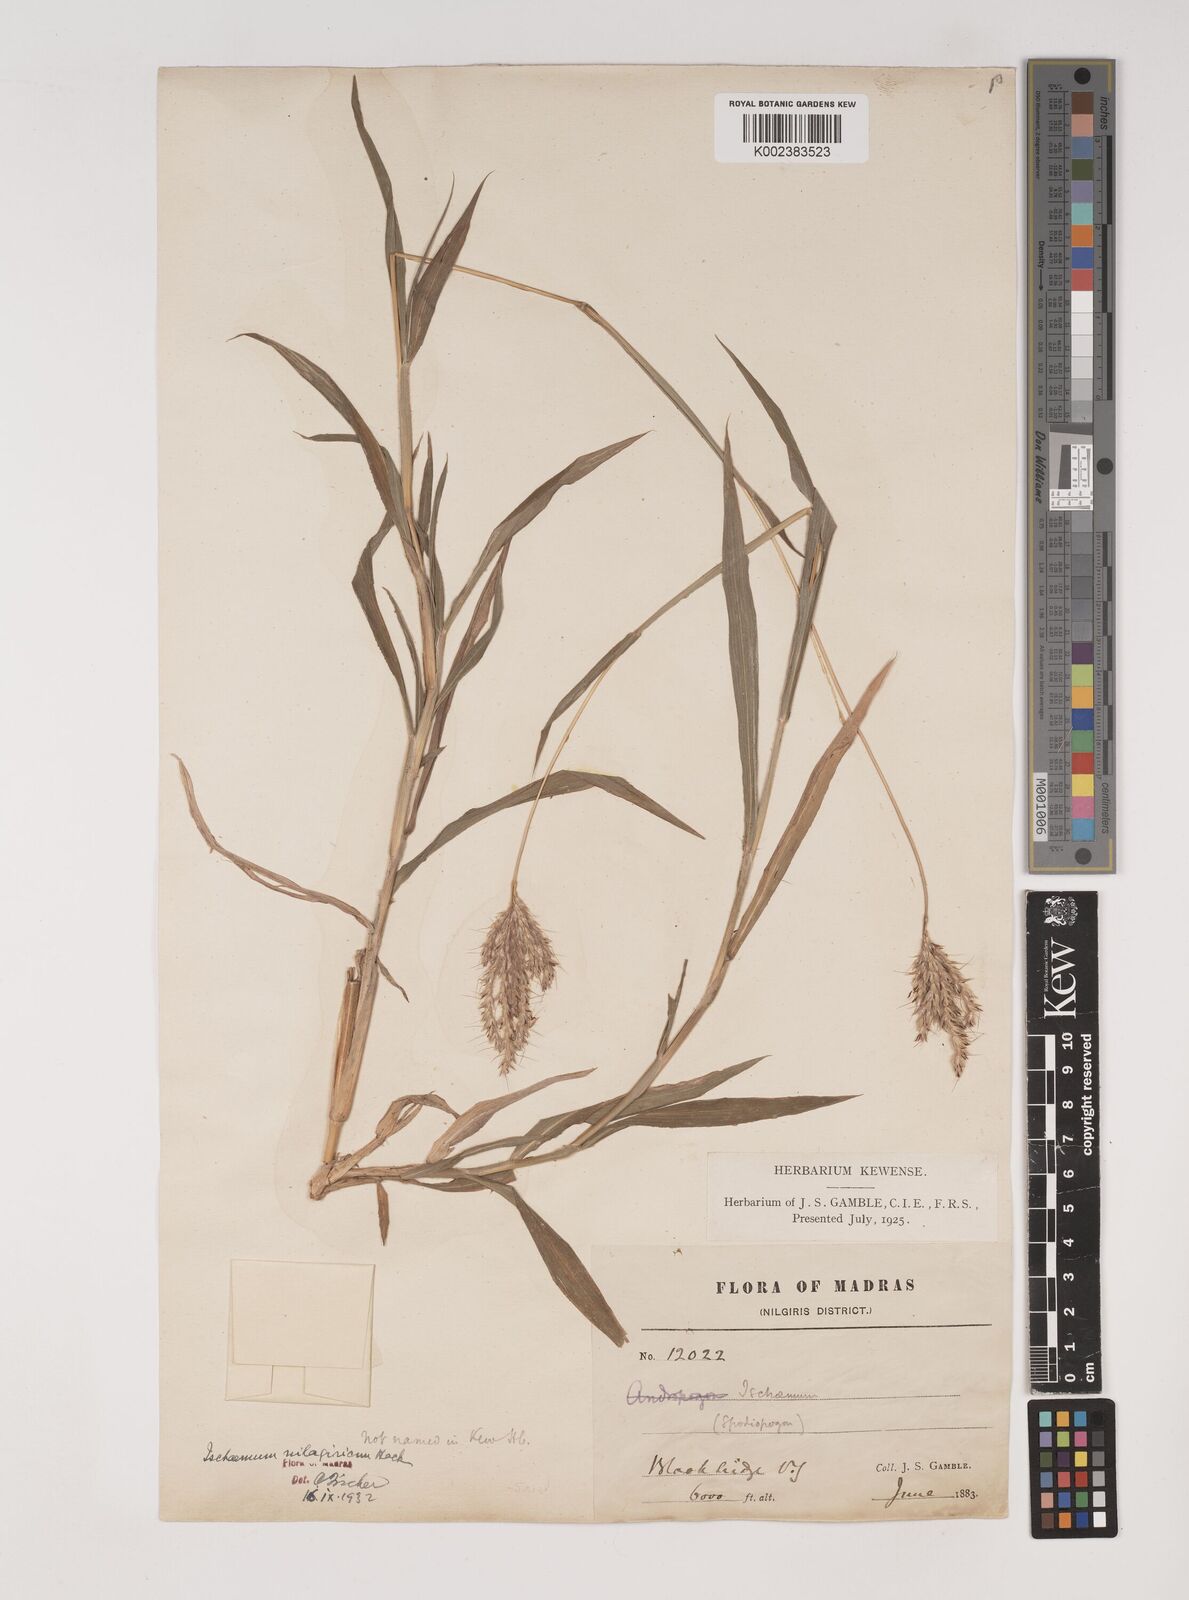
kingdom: Plantae
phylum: Tracheophyta
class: Liliopsida
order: Poales
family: Poaceae
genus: Ischaemum
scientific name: Ischaemum
